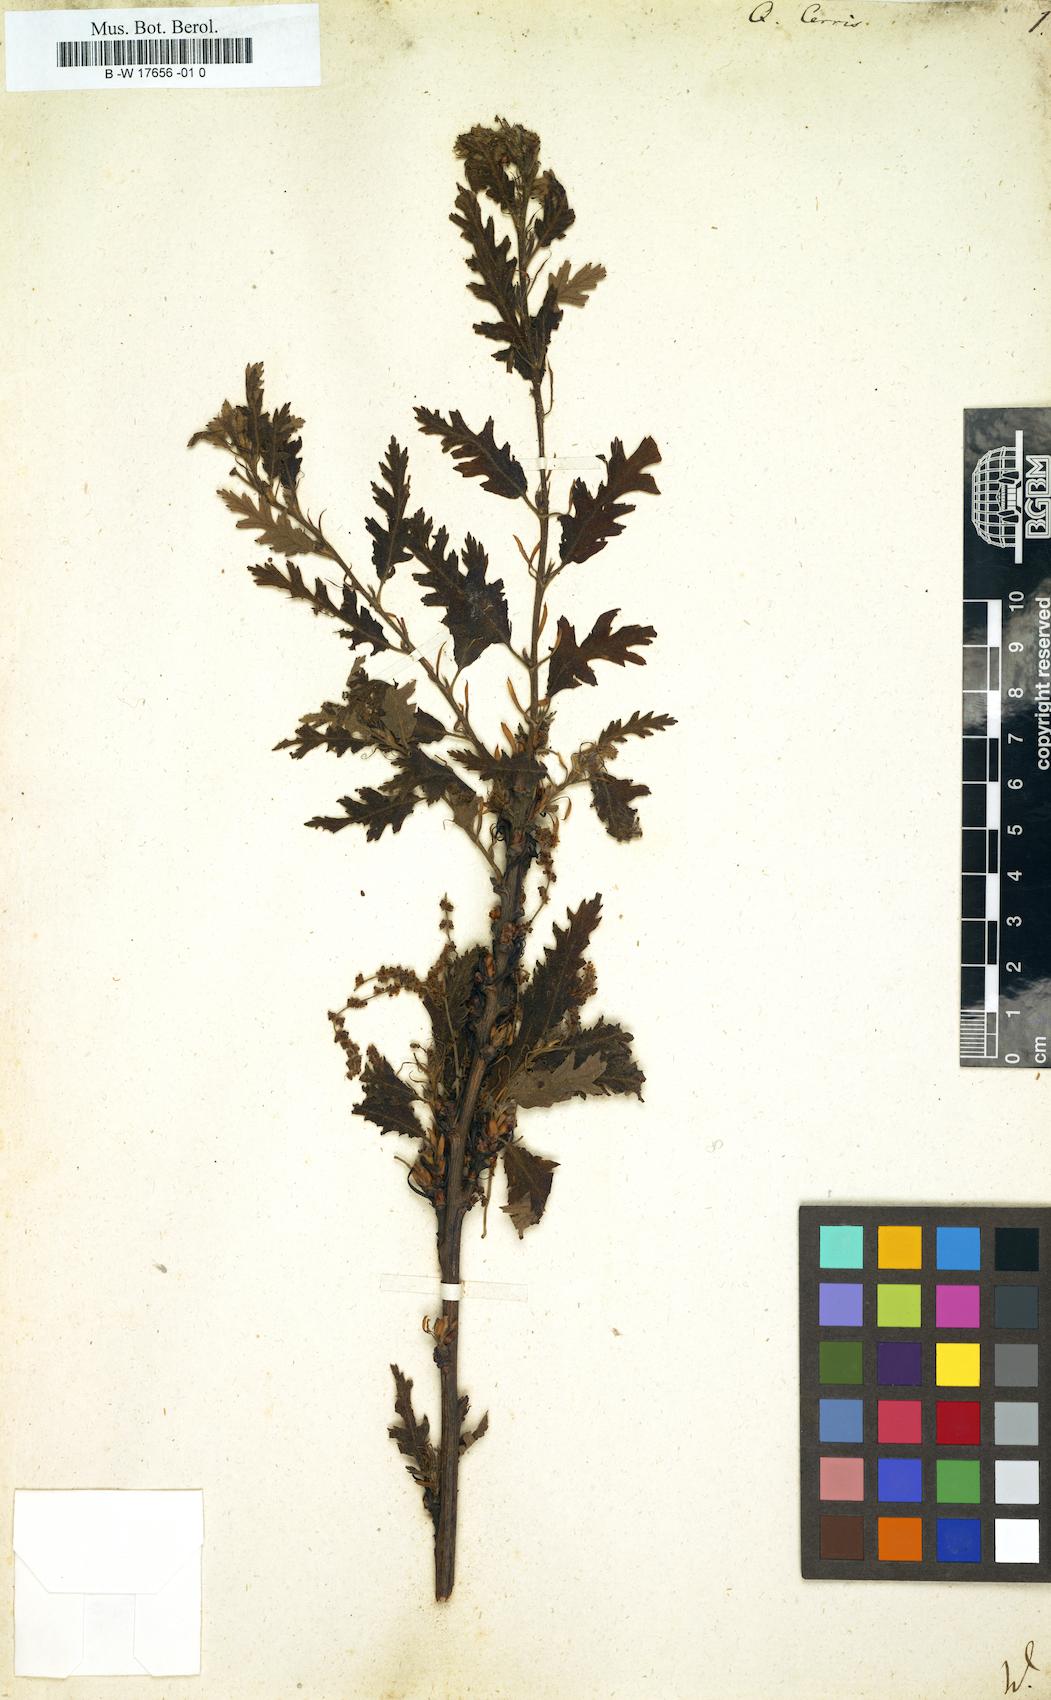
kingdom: Plantae
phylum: Tracheophyta
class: Magnoliopsida
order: Fagales
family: Fagaceae
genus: Quercus
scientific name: Quercus cerris
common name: Turkey oak
